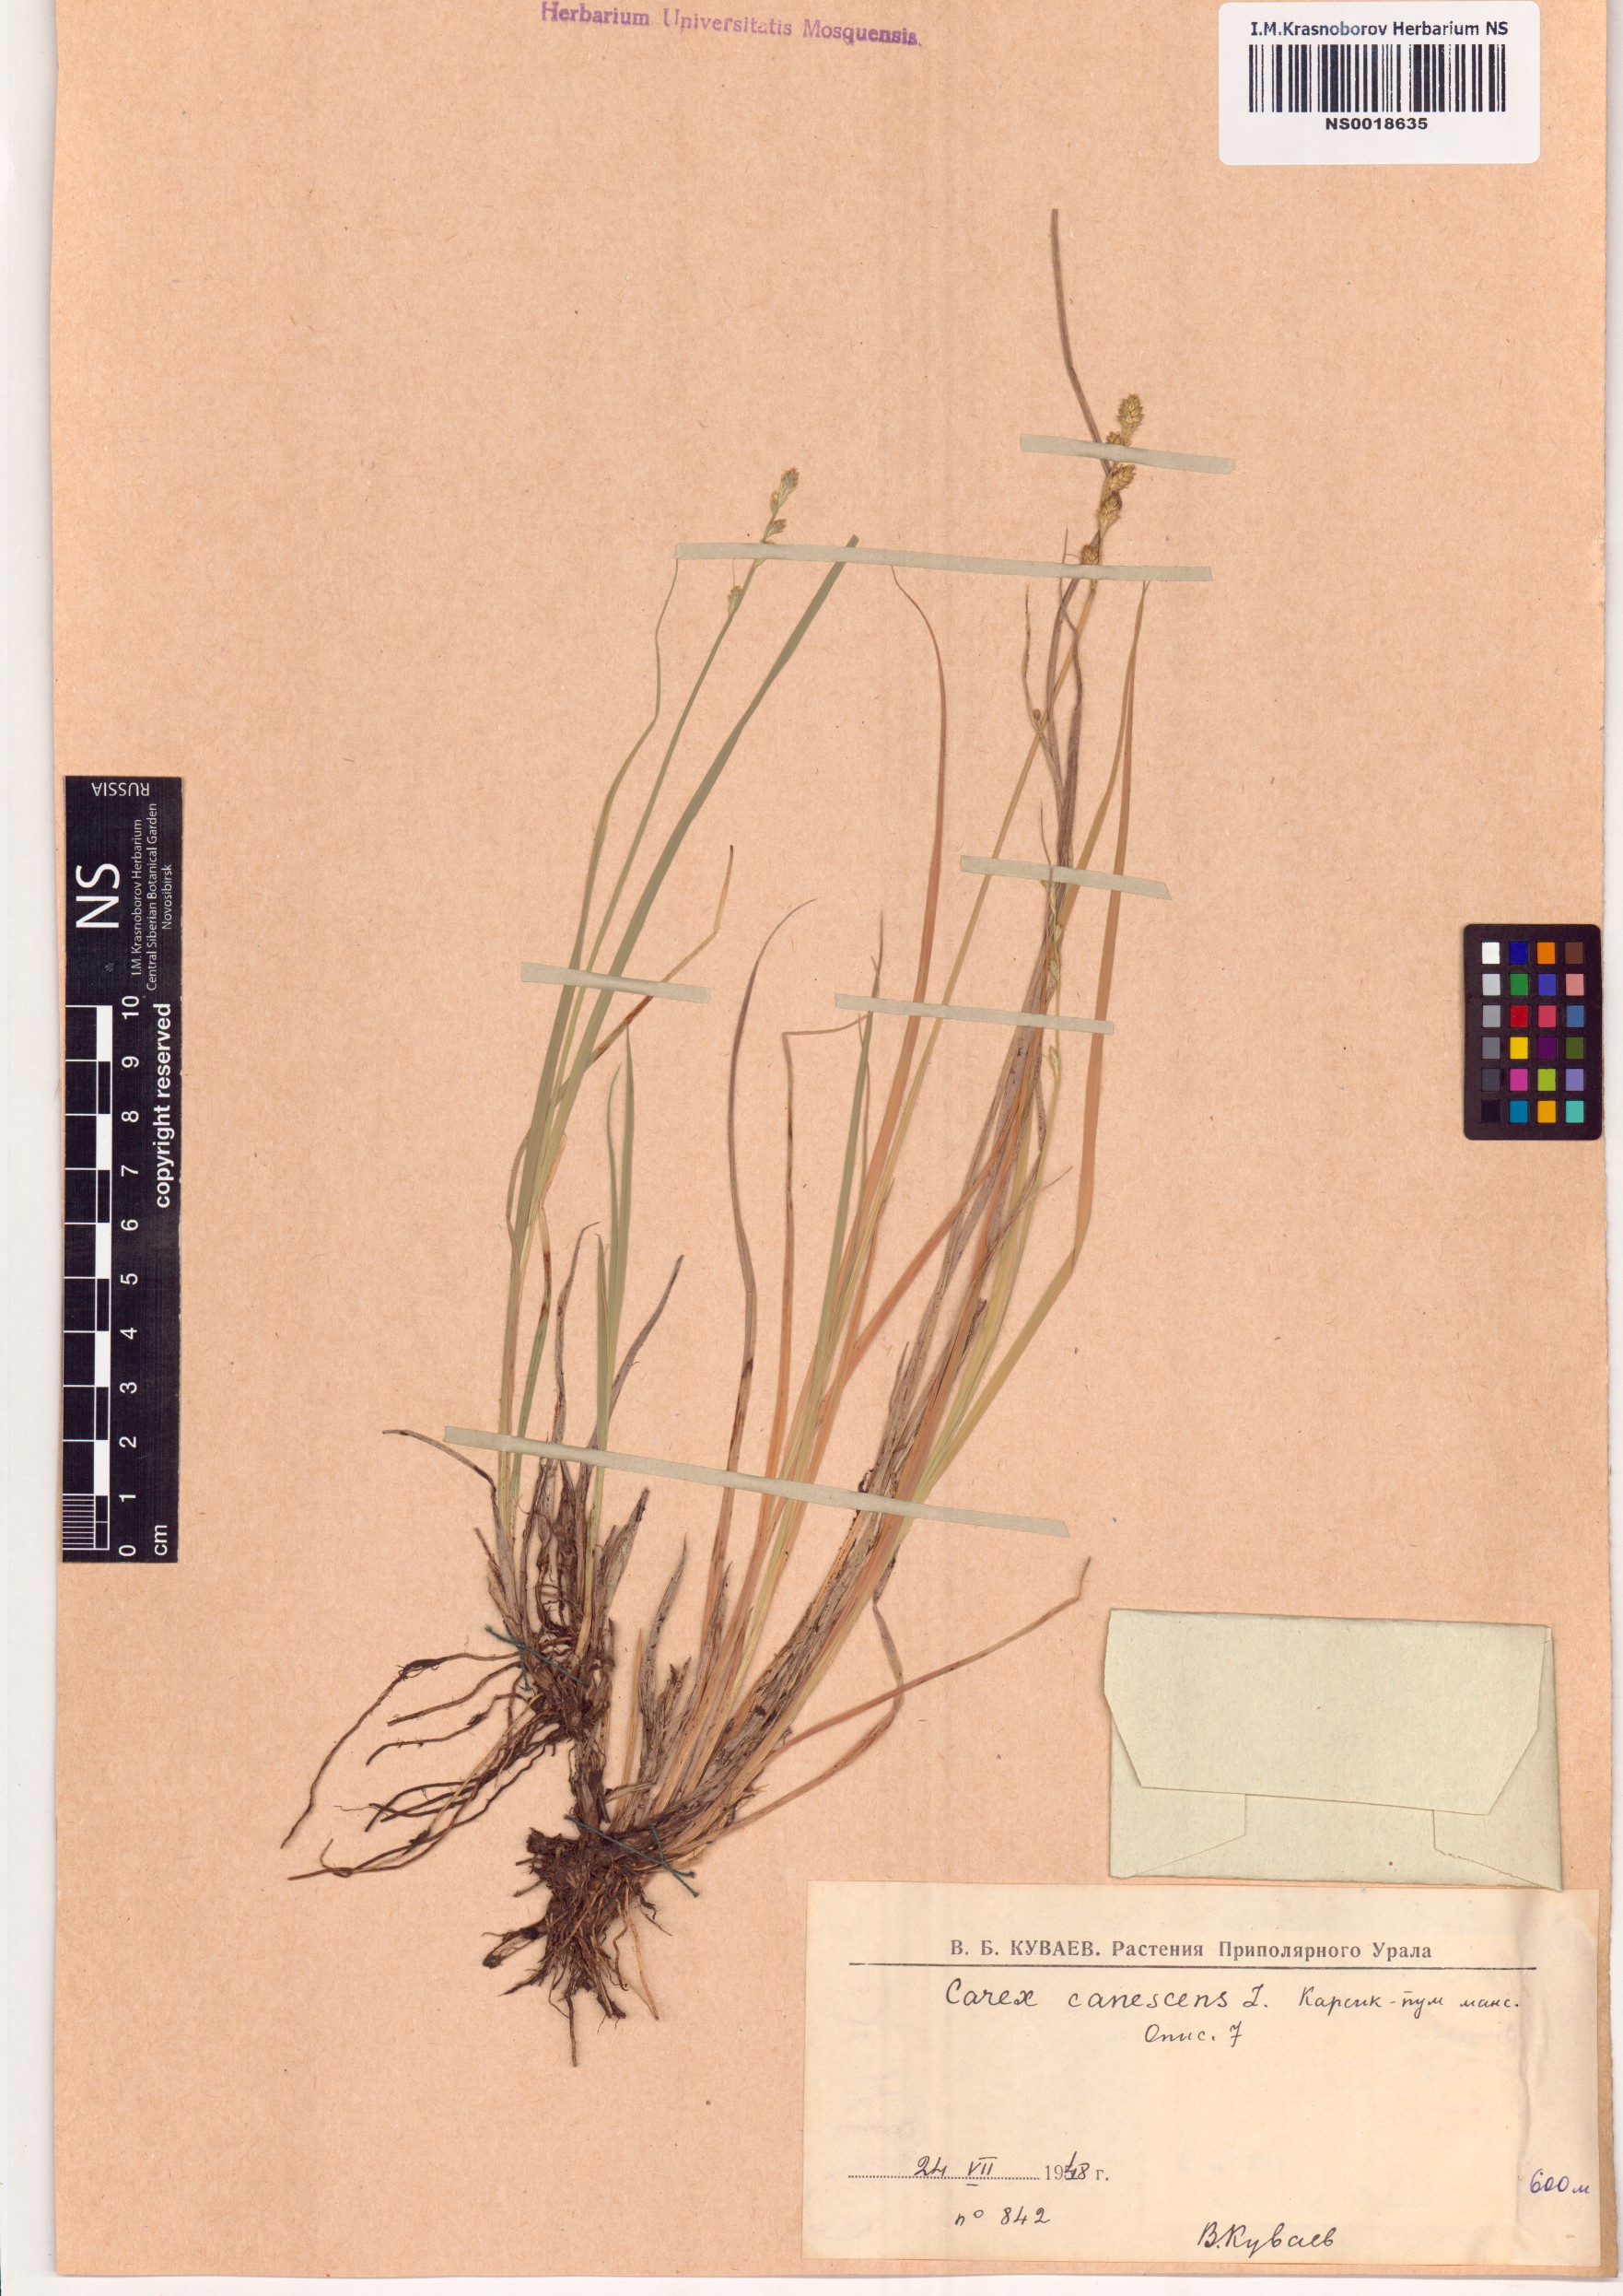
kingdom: Plantae
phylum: Tracheophyta
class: Liliopsida
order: Poales
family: Cyperaceae
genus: Carex
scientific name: Carex canescens
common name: White sedge
